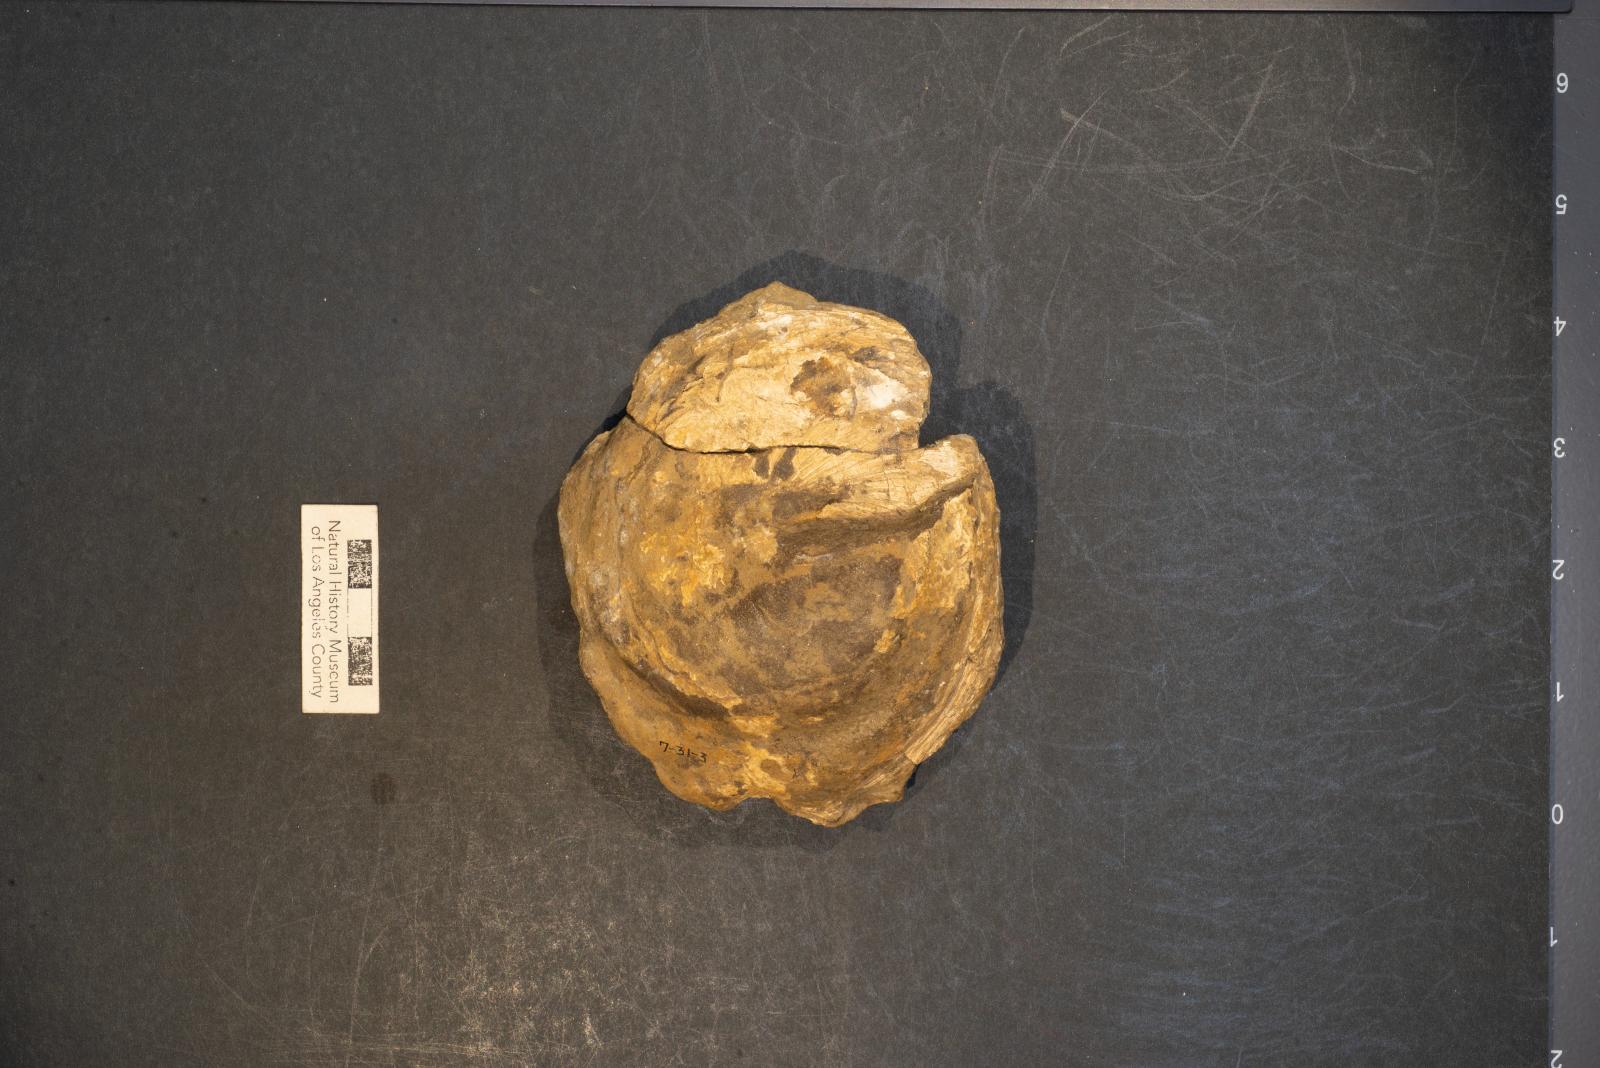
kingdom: Animalia
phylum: Mollusca
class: Gastropoda
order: Littorinimorpha
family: Xenophoridae
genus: Xenophora
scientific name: Xenophora hermax
